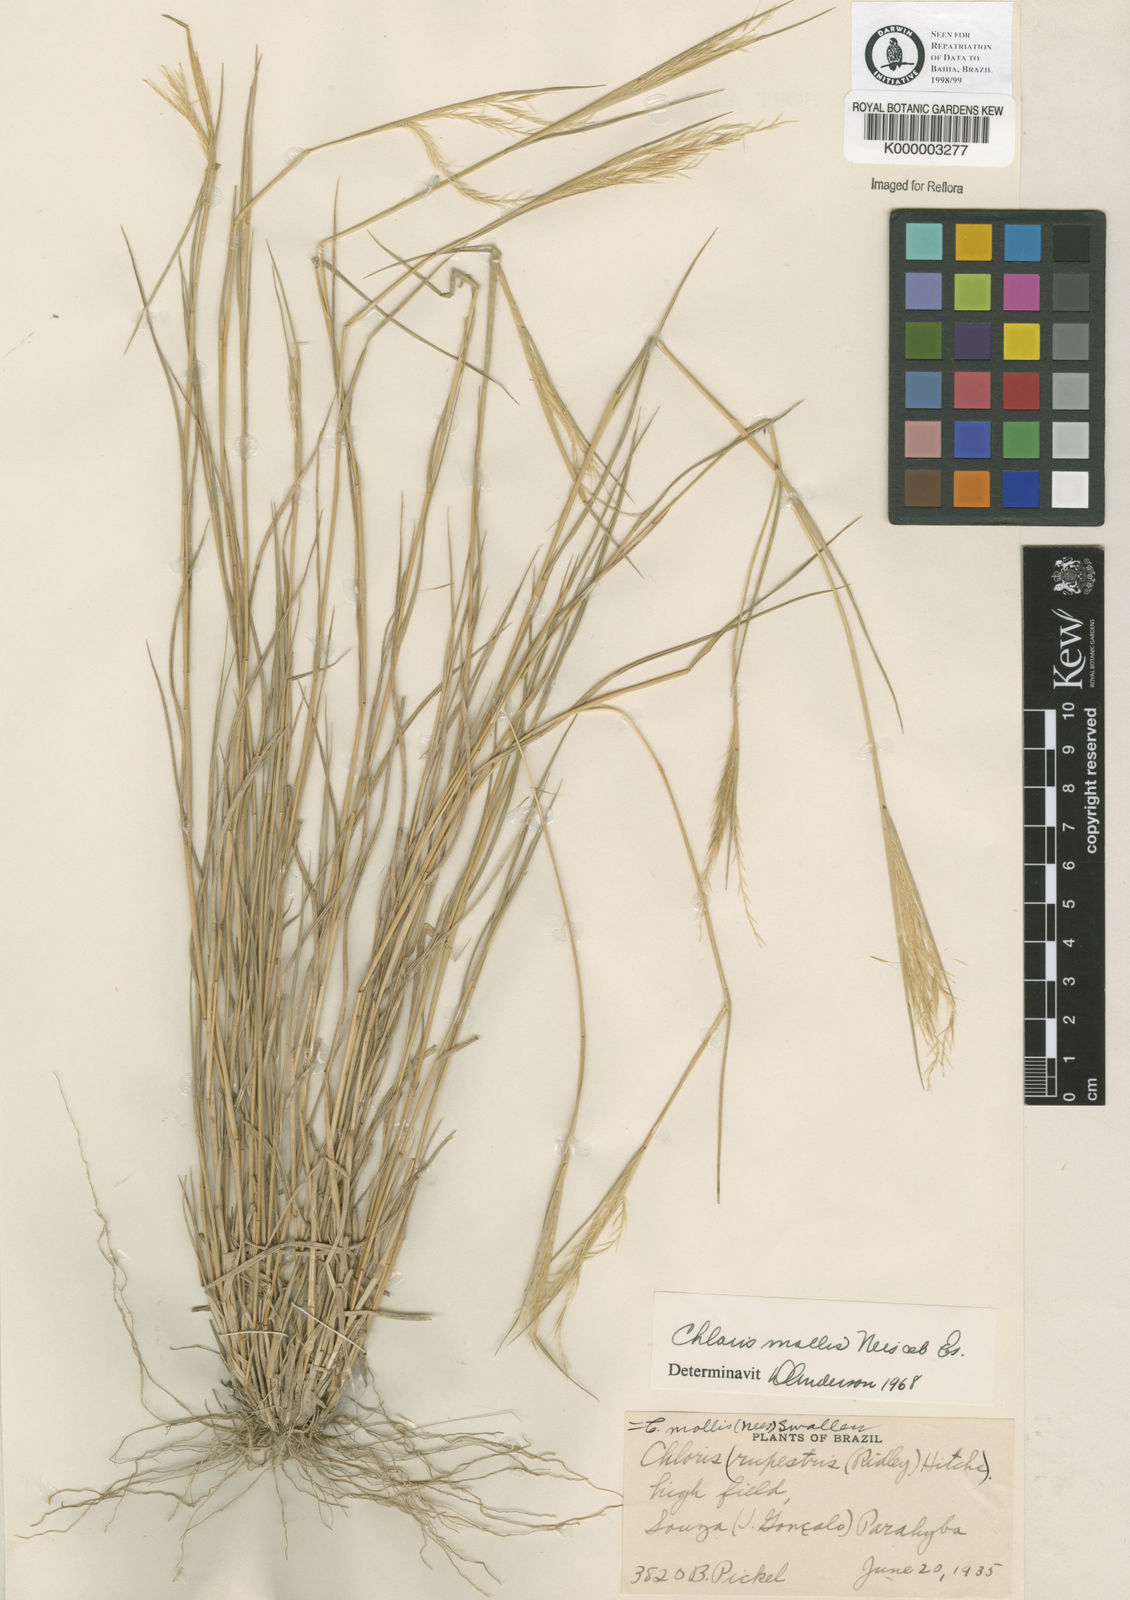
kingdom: Plantae
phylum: Tracheophyta
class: Liliopsida
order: Poales
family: Poaceae
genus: Leptochloa
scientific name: Leptochloa anisopoda
